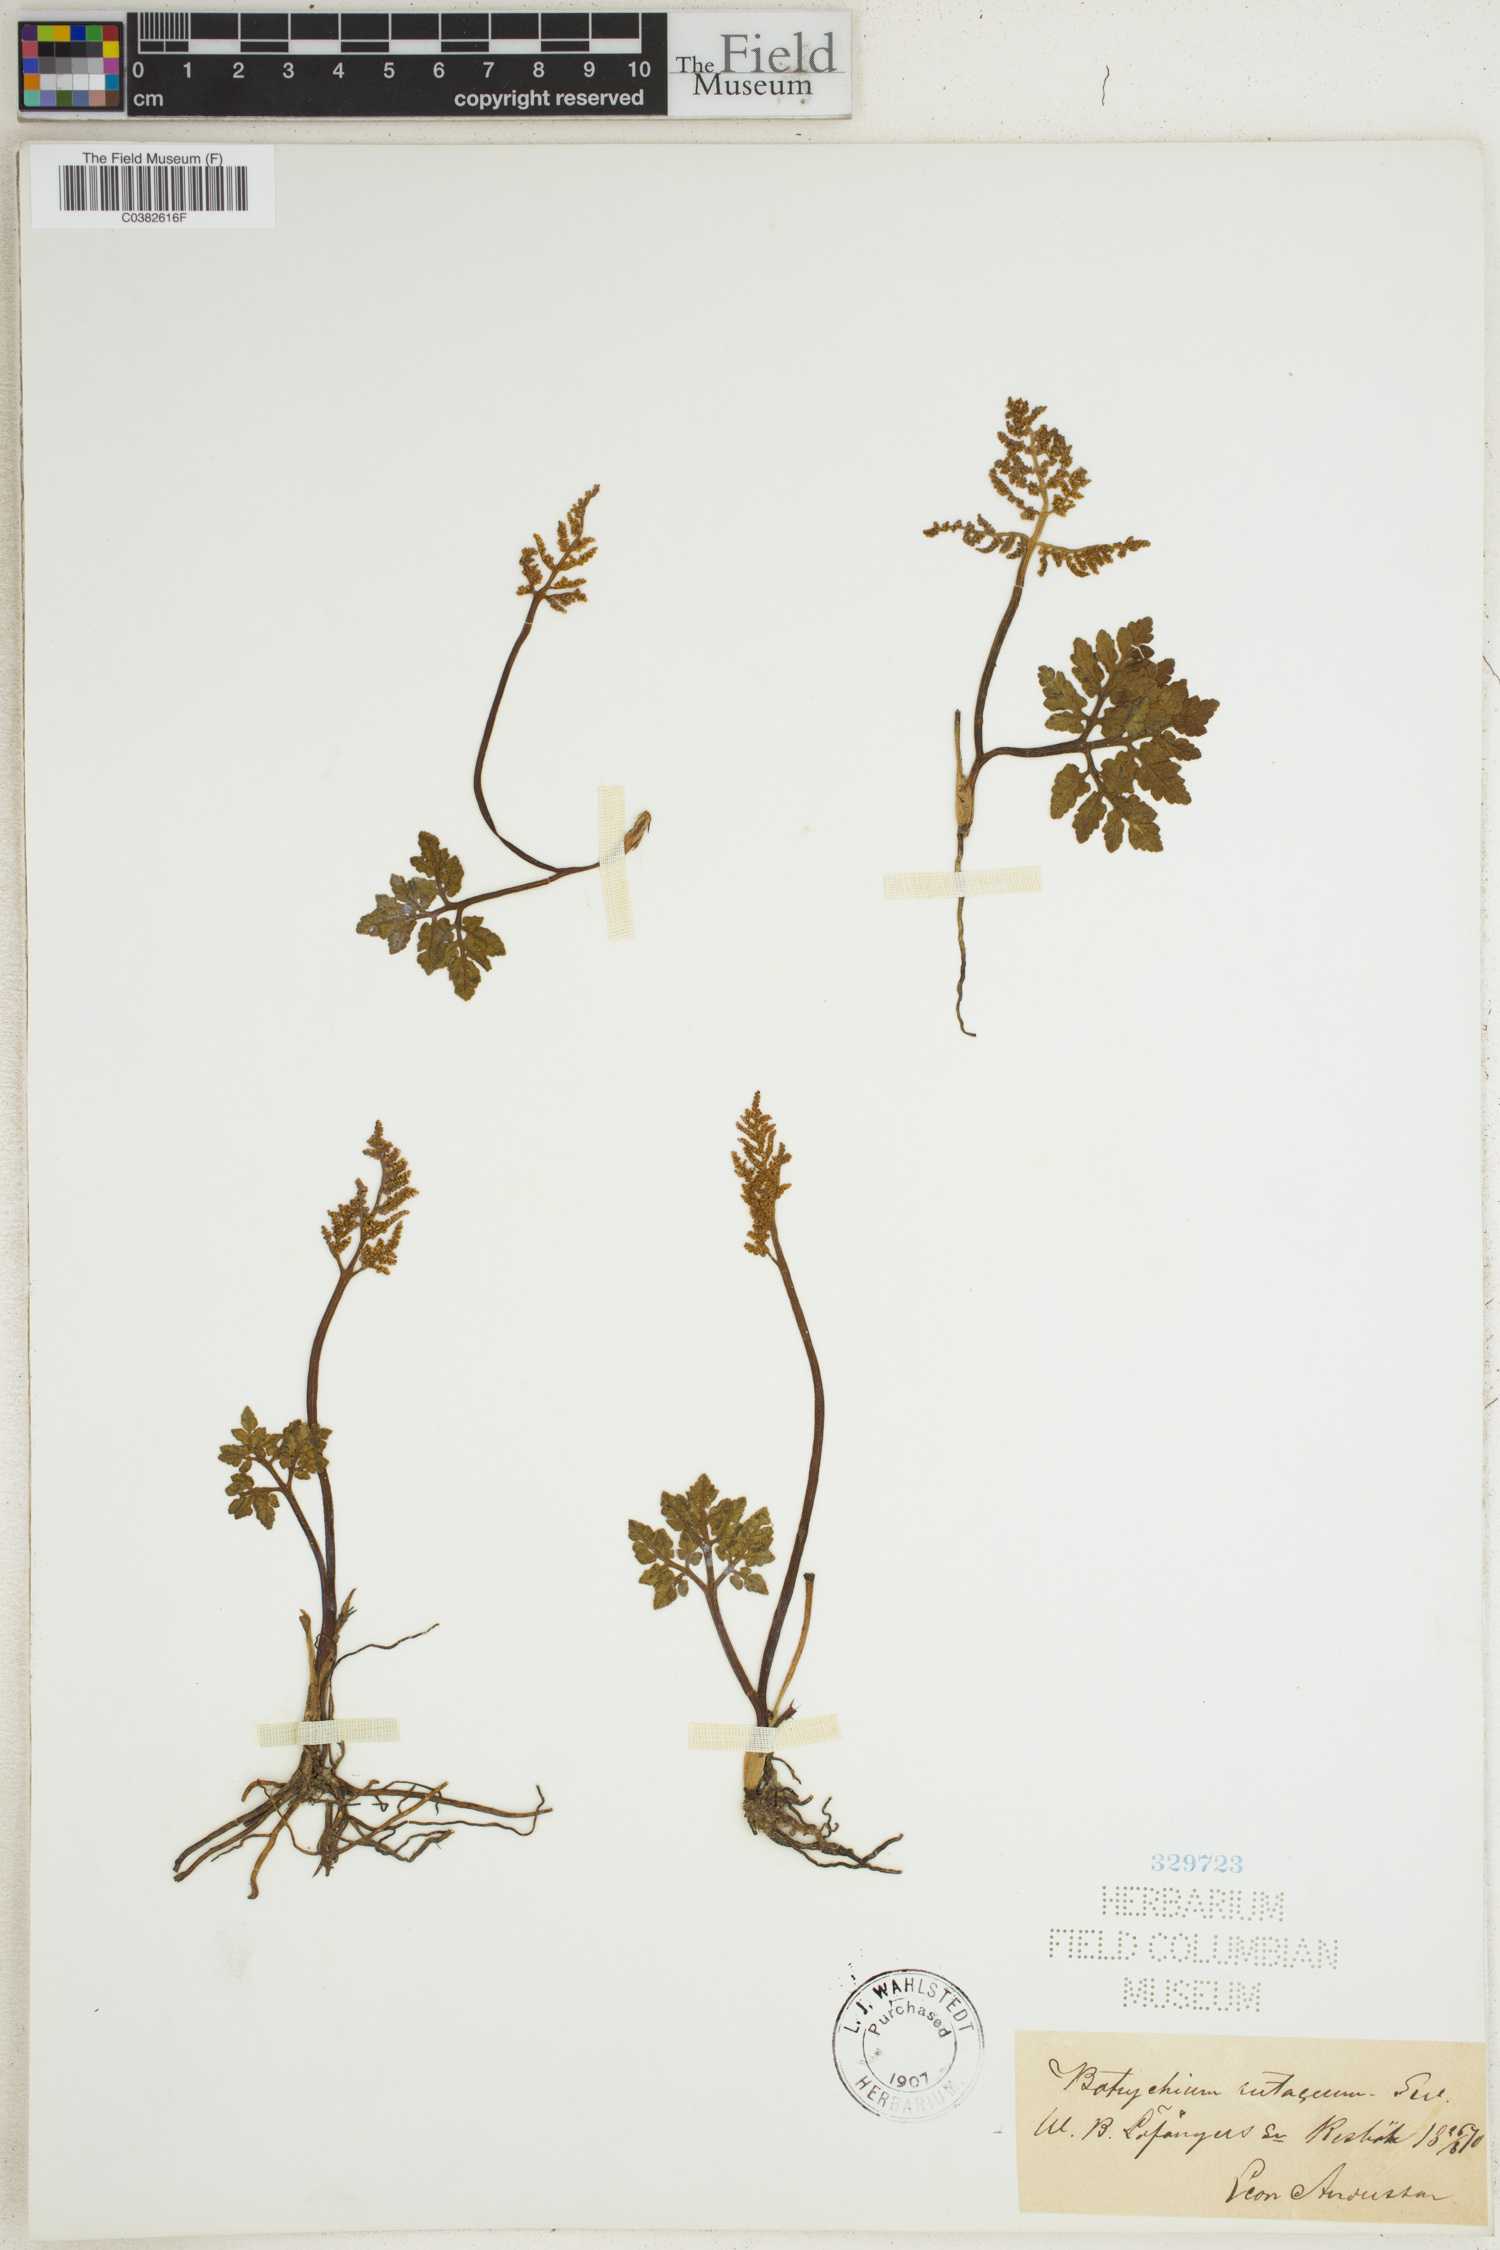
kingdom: Plantae
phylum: Tracheophyta
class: Polypodiopsida
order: Ophioglossales
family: Ophioglossaceae
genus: Botrychium
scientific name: Botrychium matricariifolium
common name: Branched moonwort
